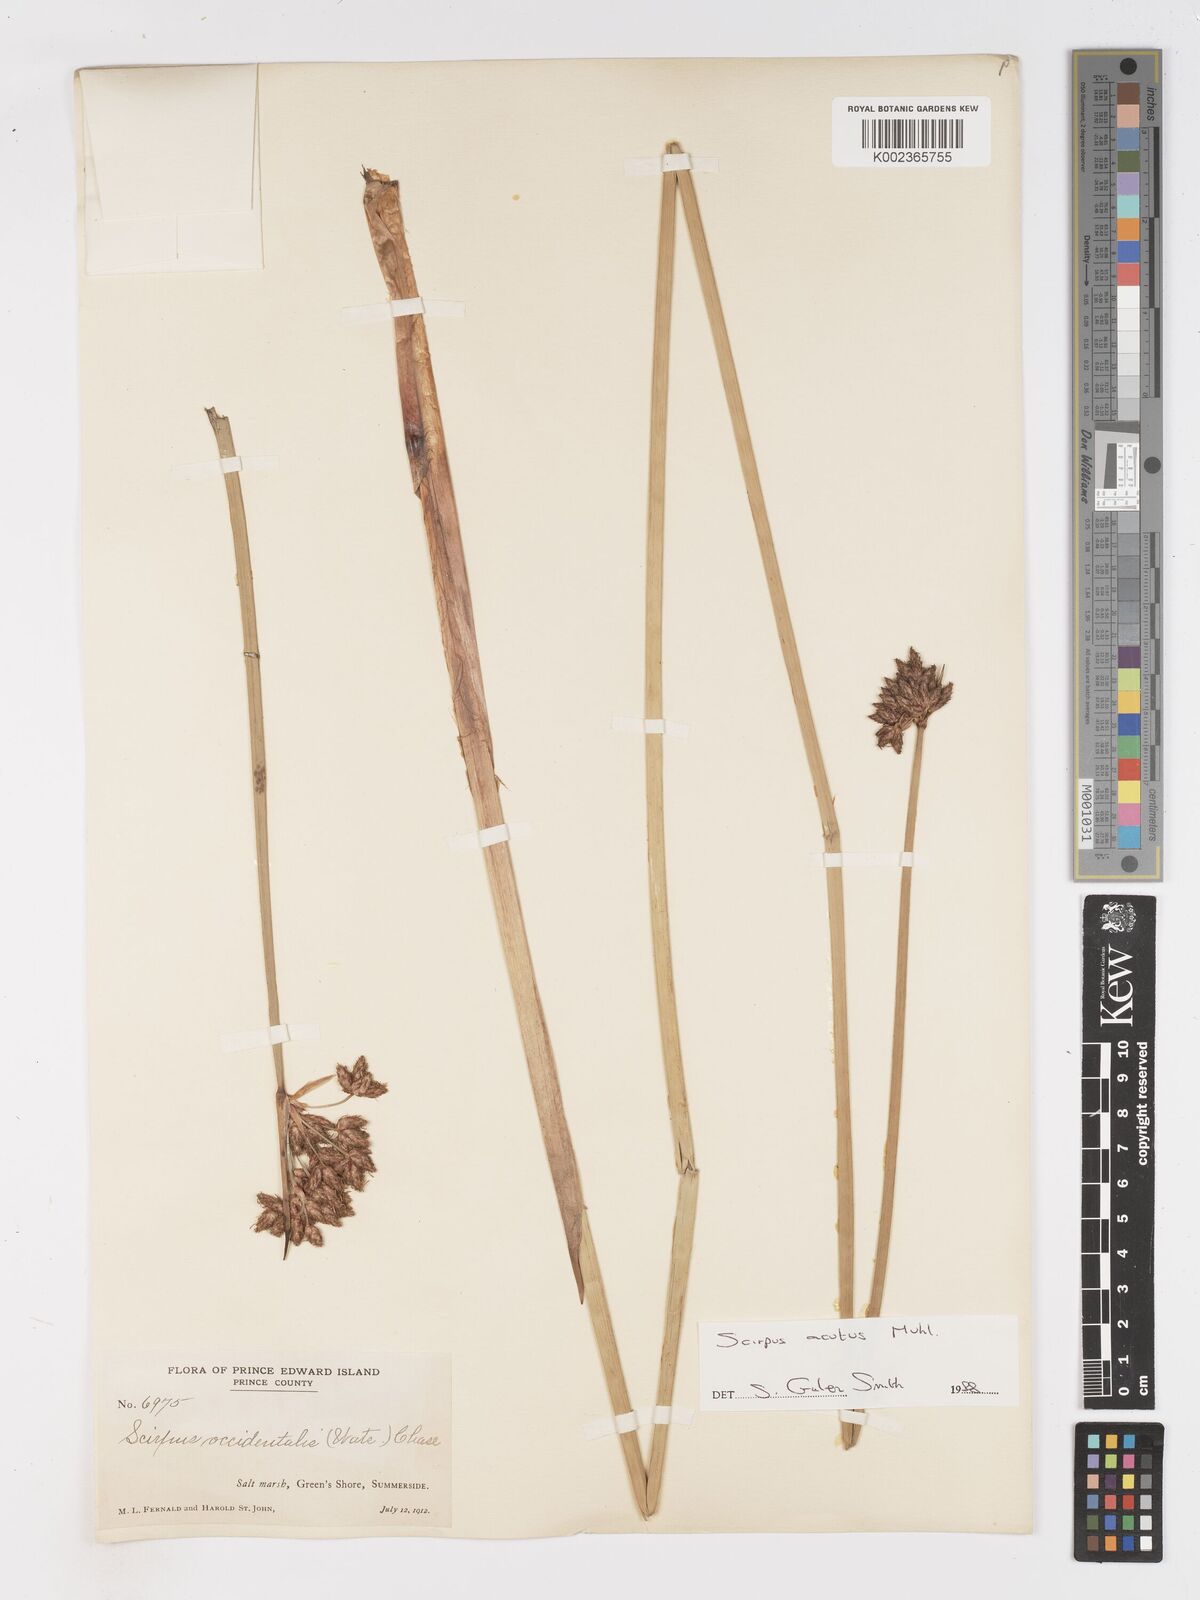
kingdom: Plantae
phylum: Tracheophyta
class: Liliopsida
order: Poales
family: Cyperaceae
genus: Schoenoplectus
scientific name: Schoenoplectus
